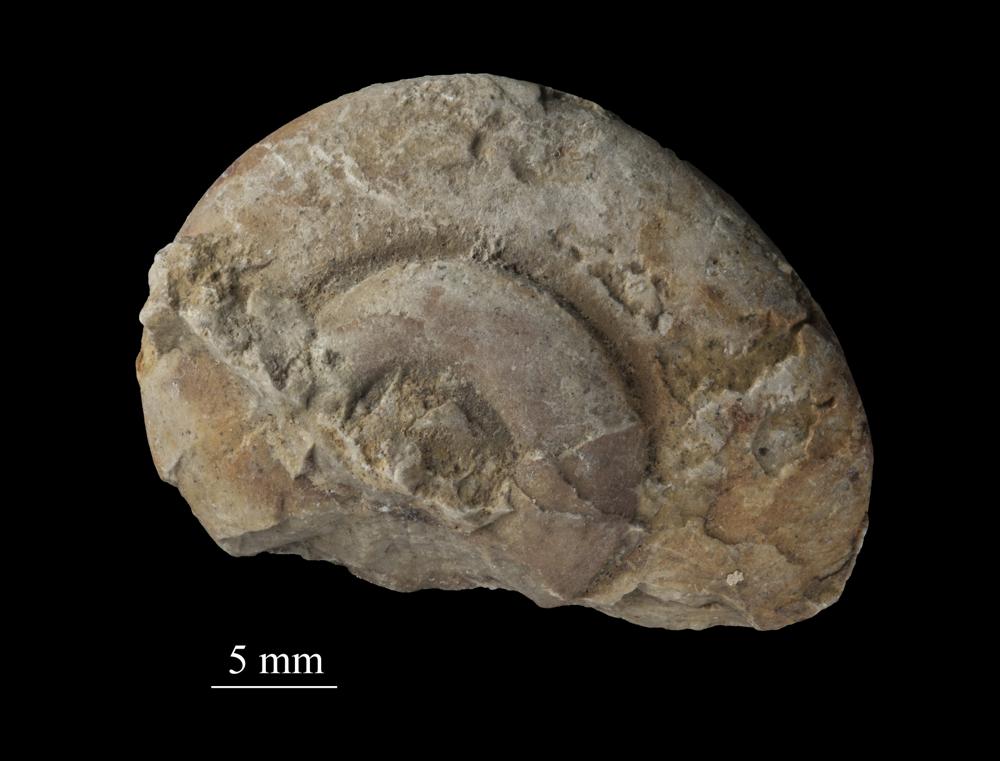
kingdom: Animalia
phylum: Mollusca
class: Gastropoda
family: Euomphalidae
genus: Euomphalus
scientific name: Euomphalus
